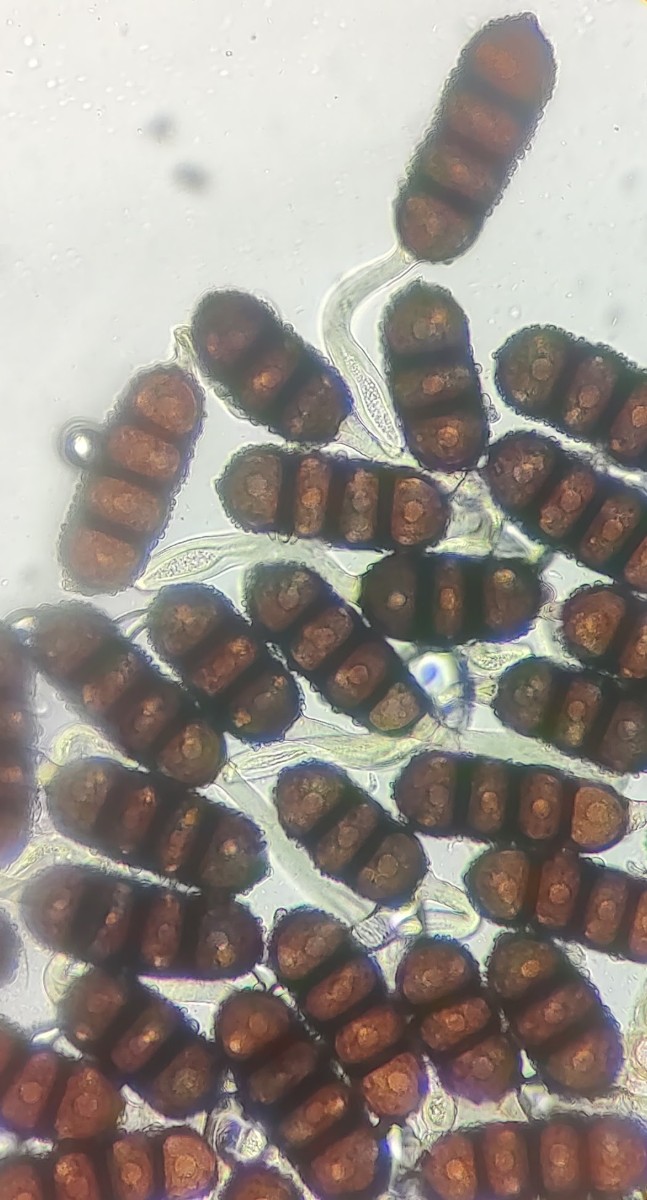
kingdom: Fungi
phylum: Basidiomycota
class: Pucciniomycetes
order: Pucciniales
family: Phragmidiaceae
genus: Phragmidium
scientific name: Phragmidium violaceum
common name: violet flercellerust
